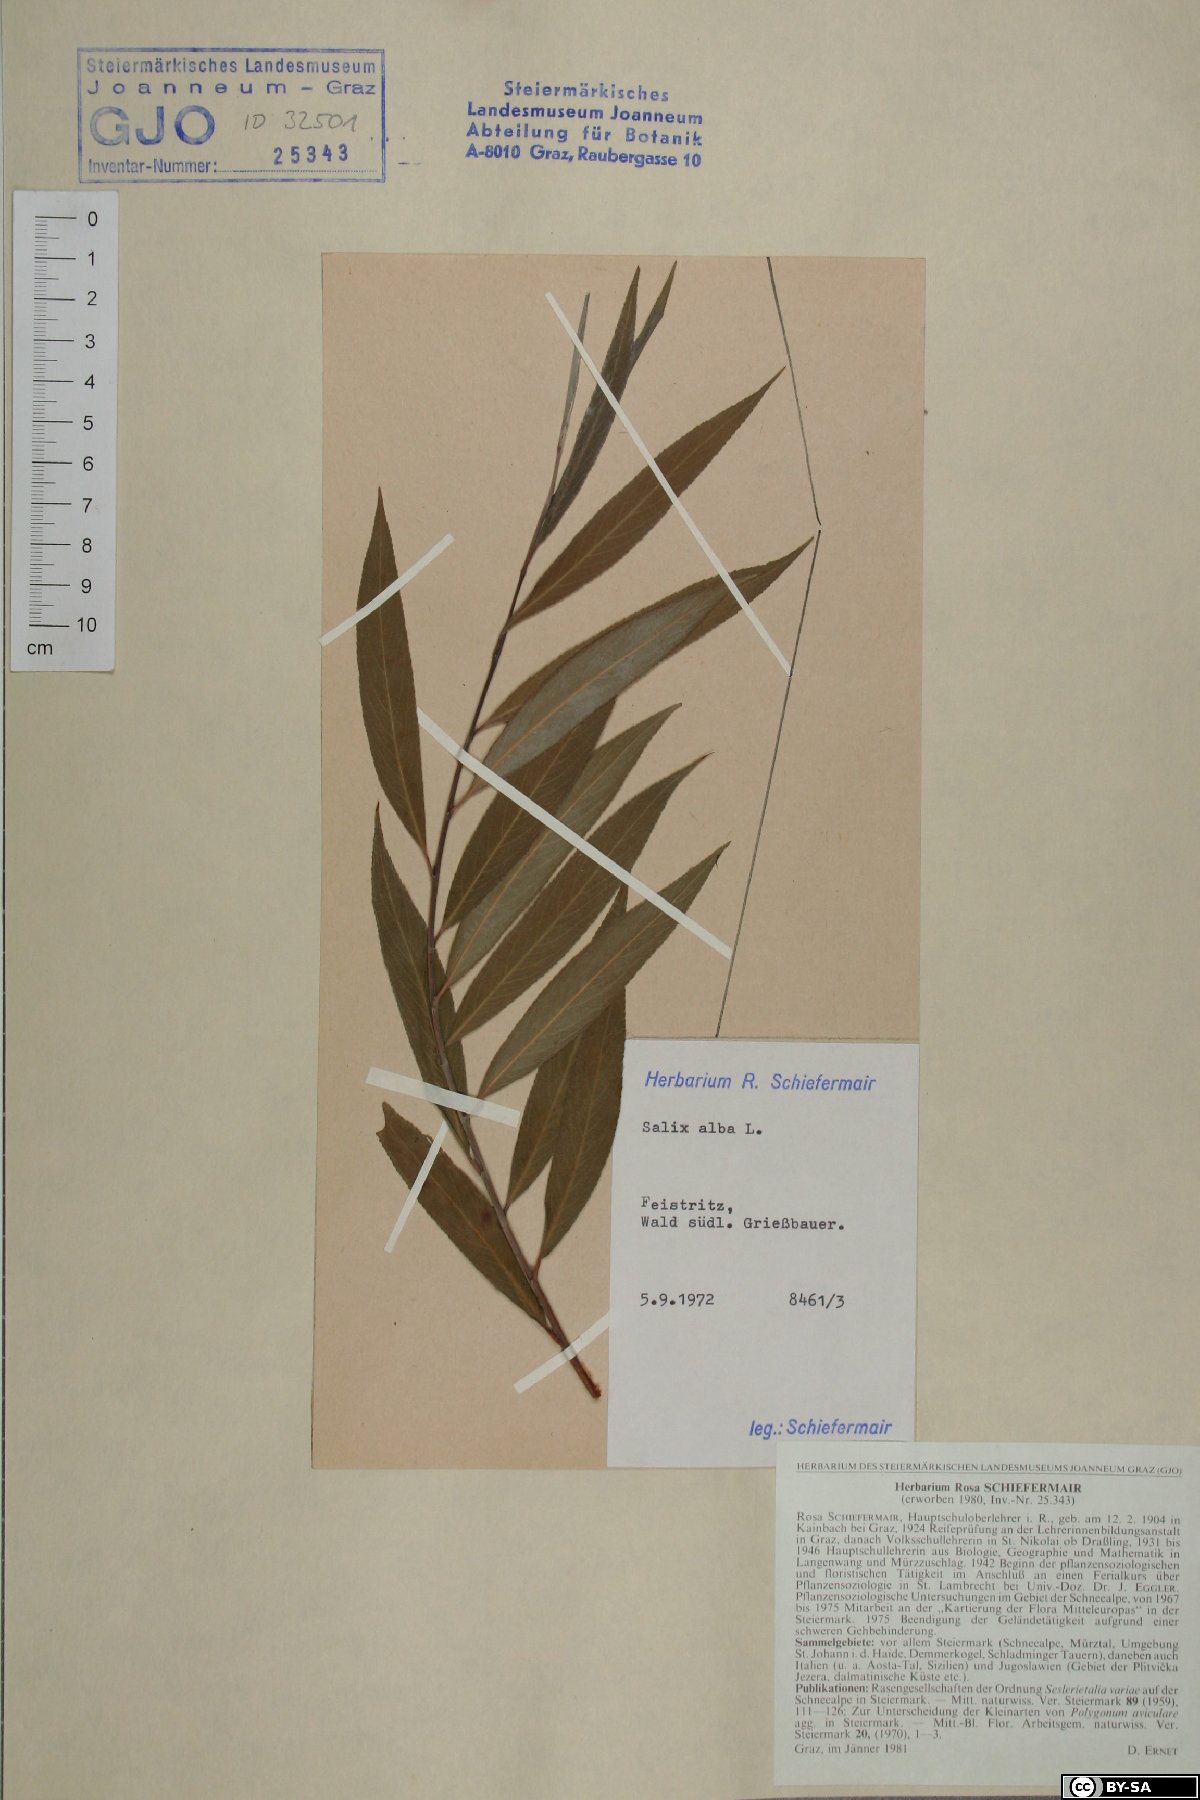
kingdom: Plantae
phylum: Tracheophyta
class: Magnoliopsida
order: Malpighiales
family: Salicaceae
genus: Salix
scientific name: Salix alba
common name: White willow
